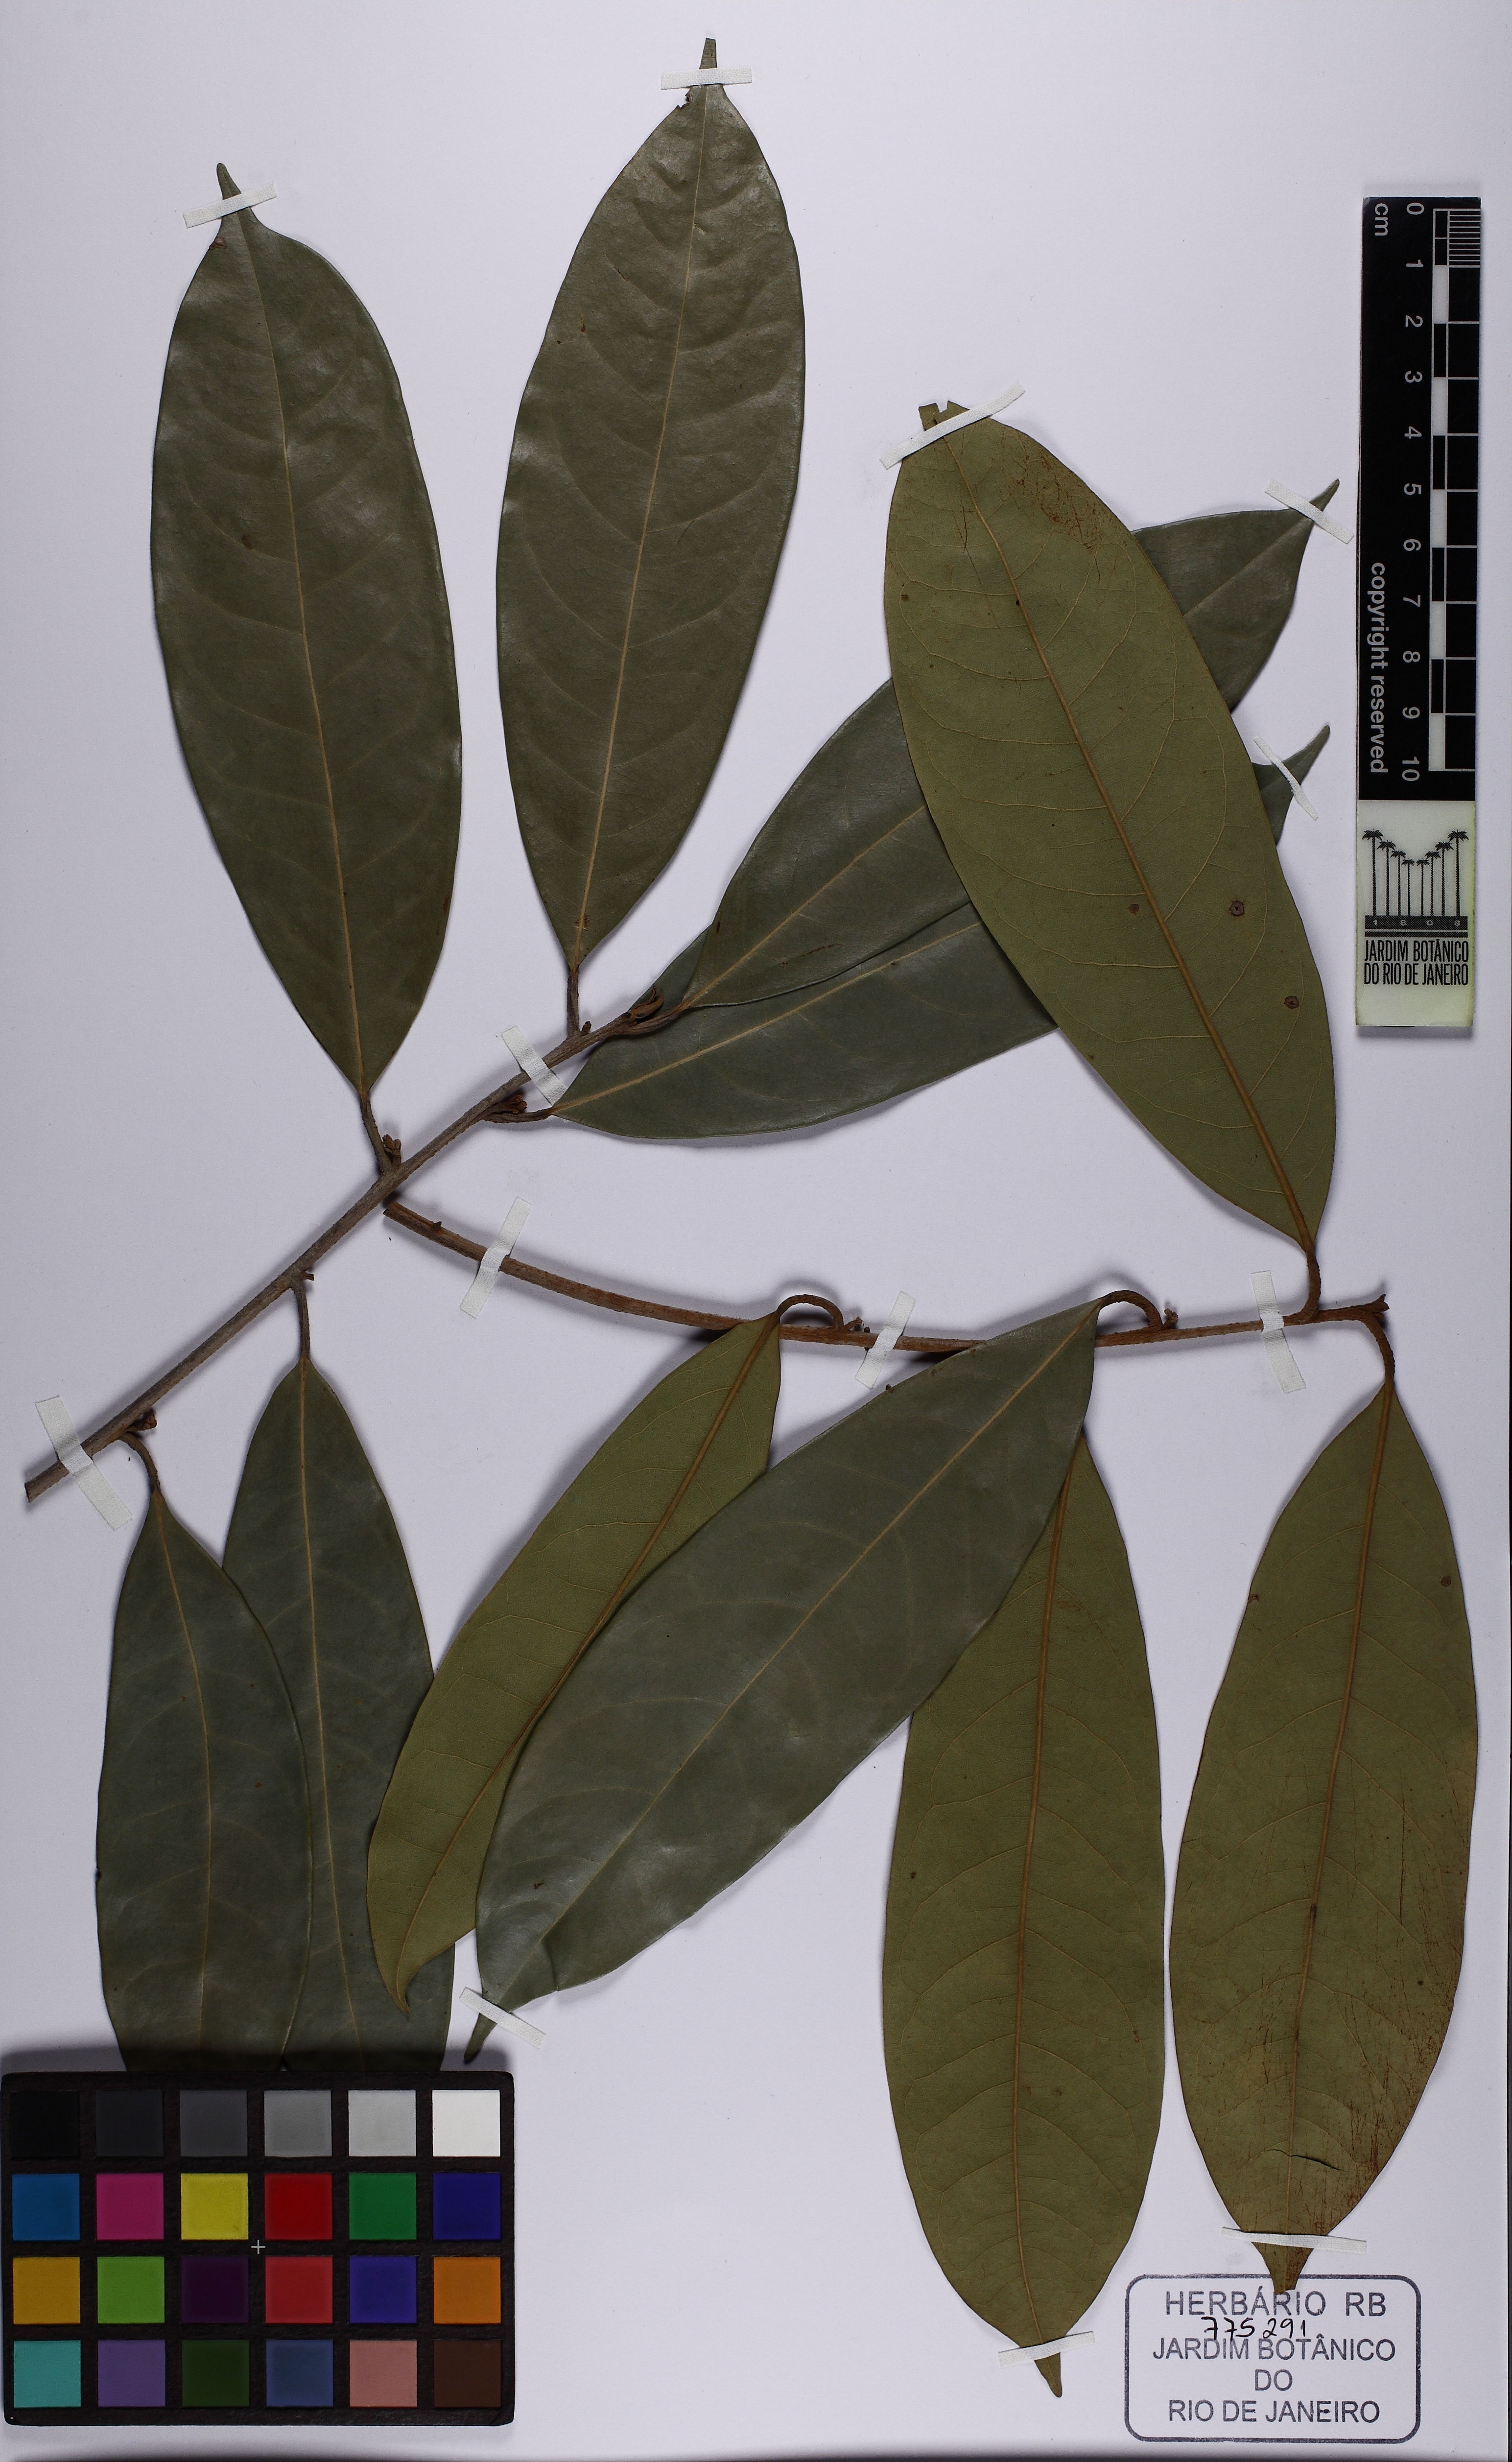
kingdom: Plantae
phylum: Tracheophyta
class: Magnoliopsida
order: Laurales
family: Lauraceae
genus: Aniba
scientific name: Aniba rosaeodora
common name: Brazilian rosewood
